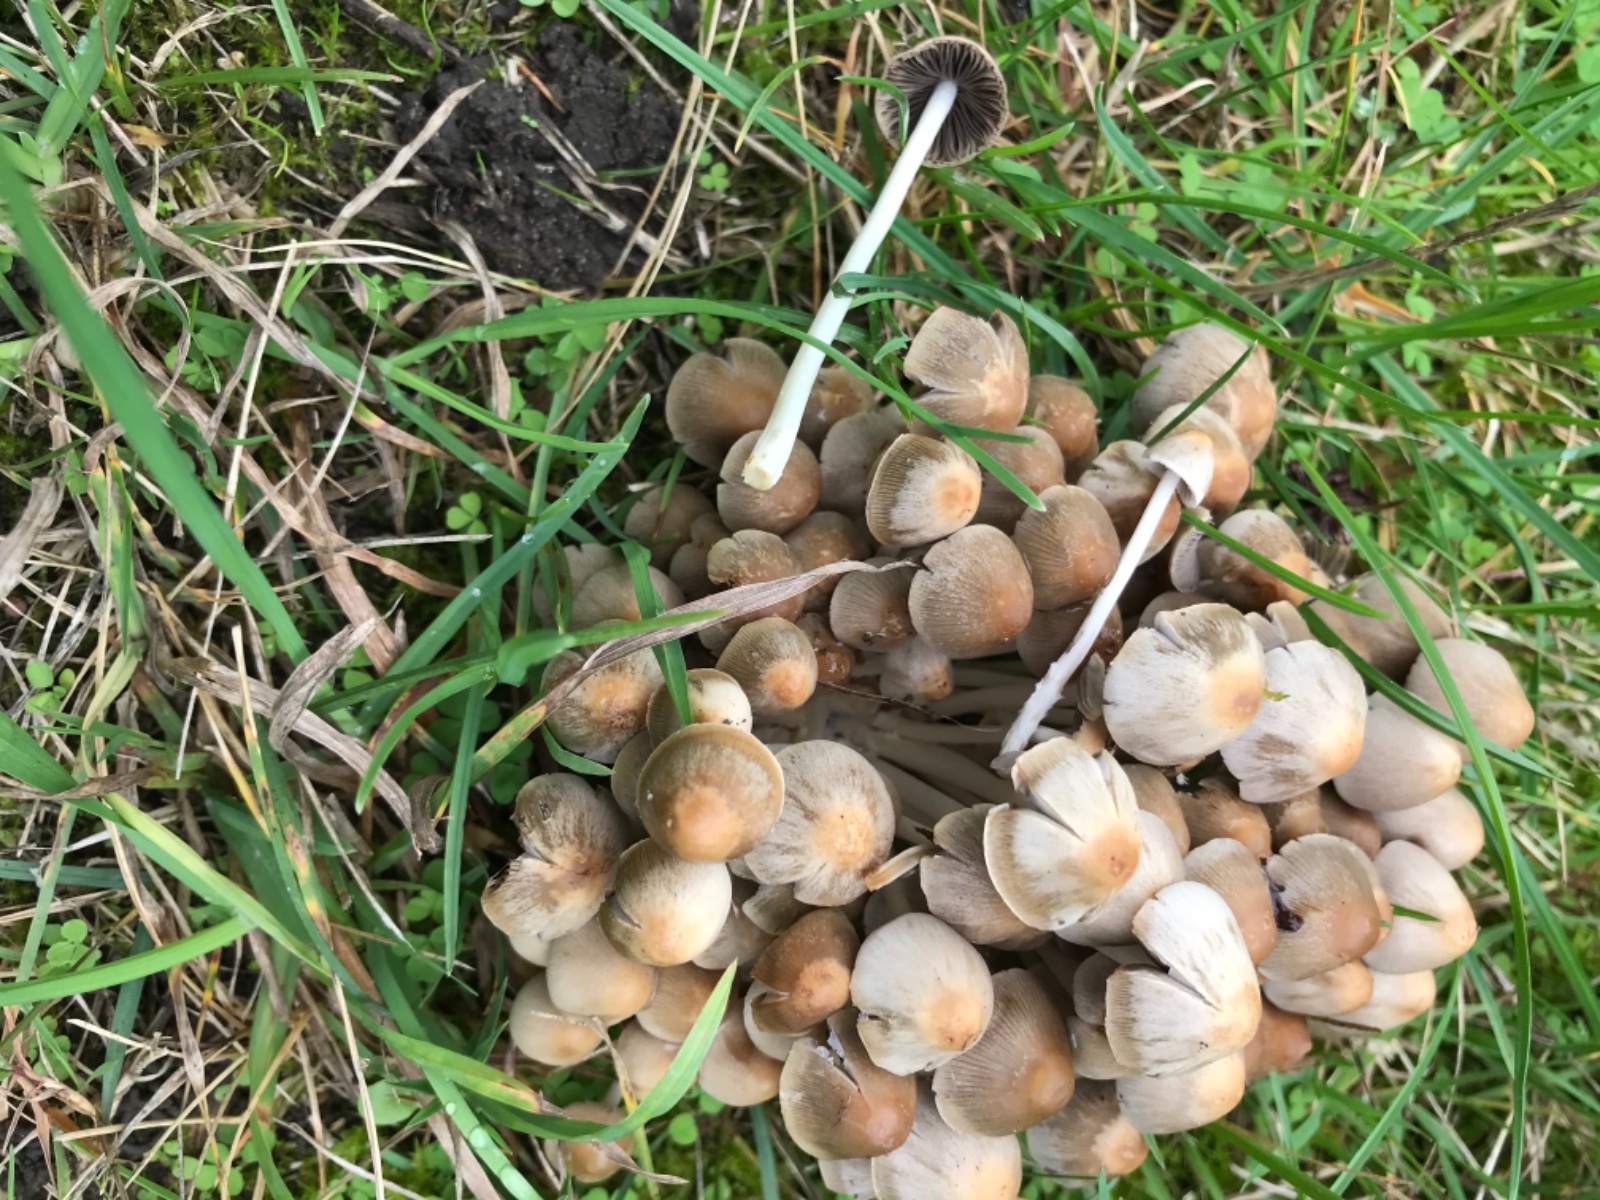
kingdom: Fungi
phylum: Basidiomycota
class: Agaricomycetes
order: Agaricales
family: Psathyrellaceae
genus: Britzelmayria
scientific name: Britzelmayria multipedata
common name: knippe-mørkhat
